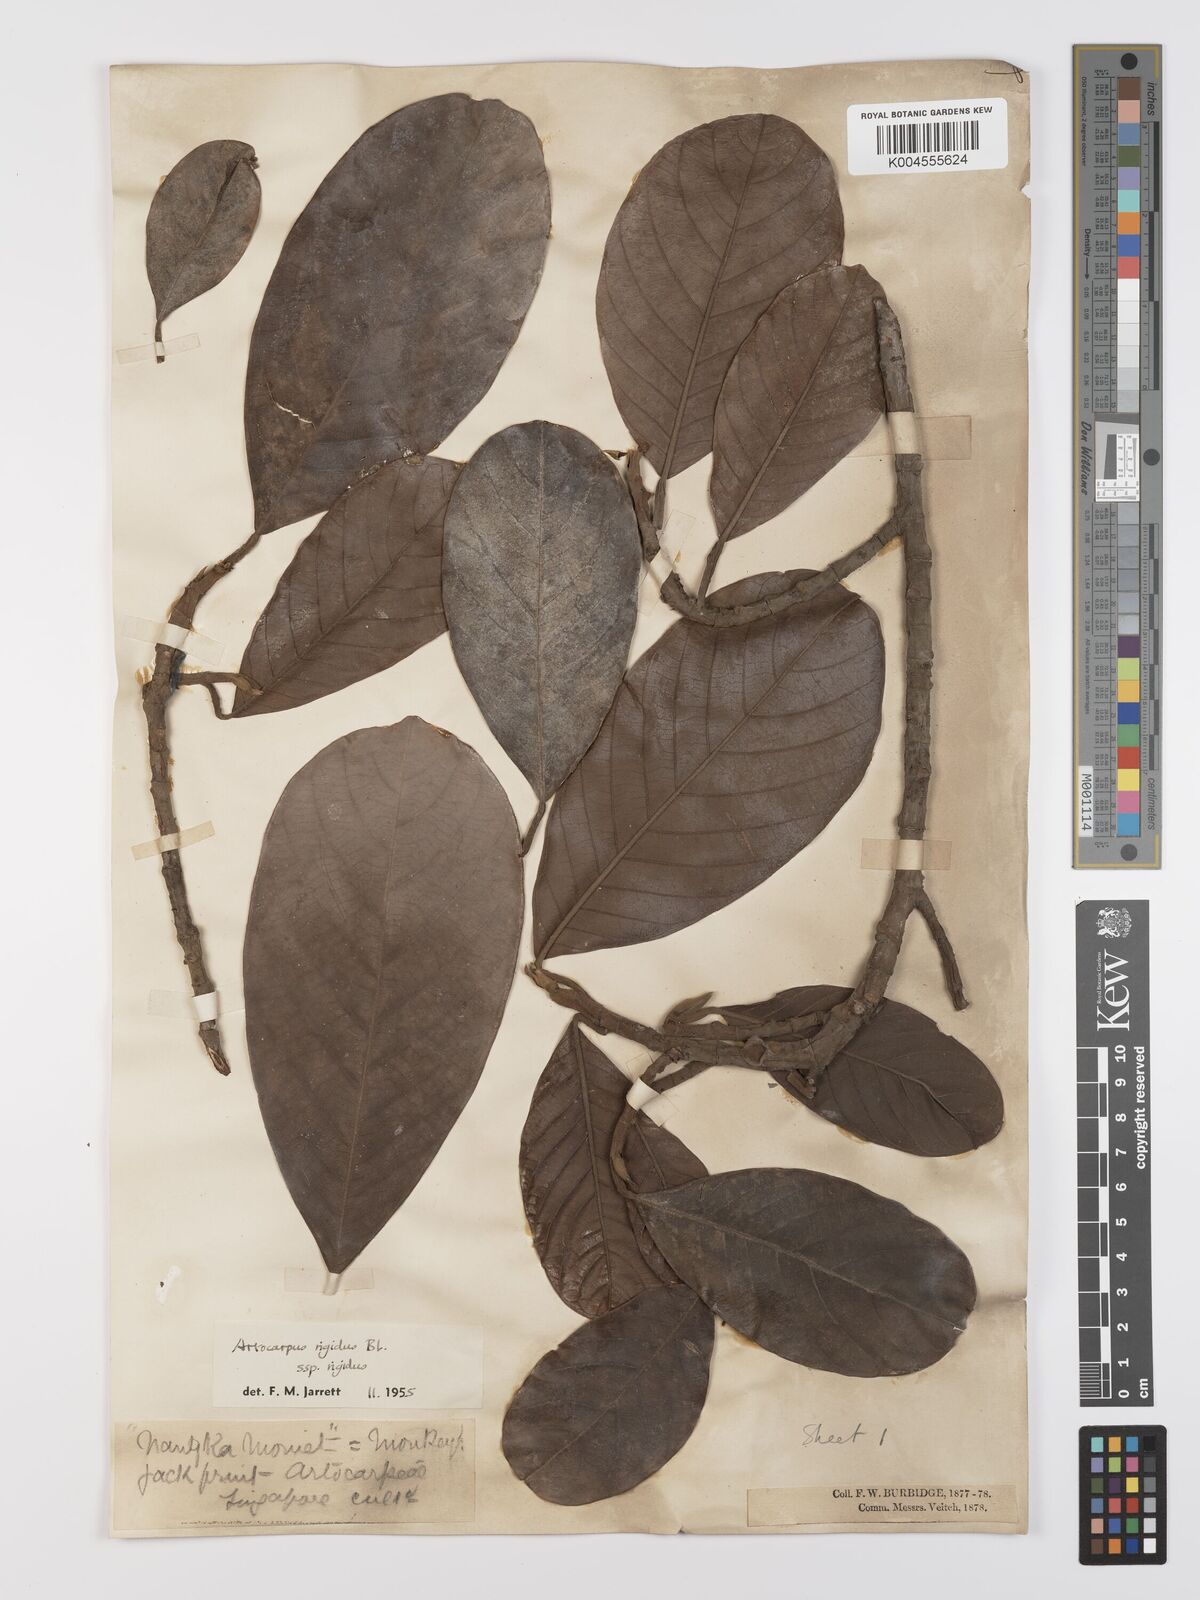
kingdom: Plantae
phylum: Tracheophyta
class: Magnoliopsida
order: Rosales
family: Moraceae
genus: Artocarpus
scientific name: Artocarpus
